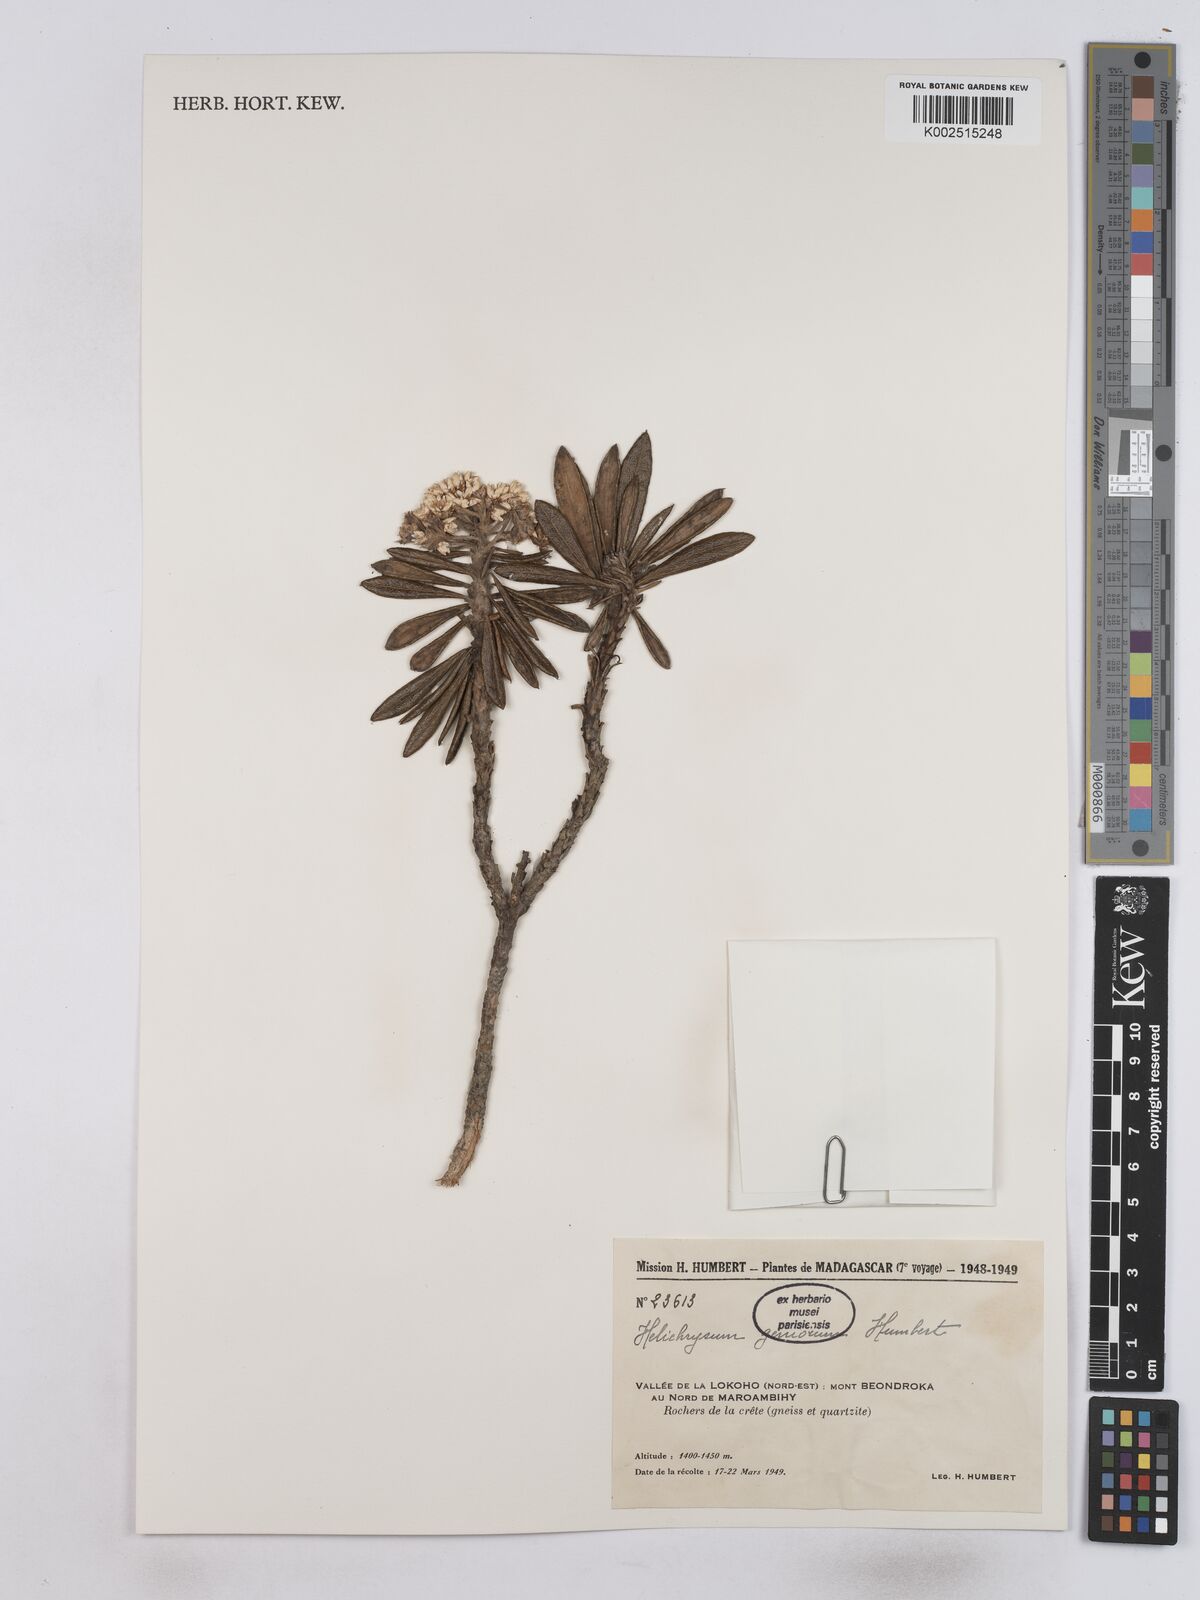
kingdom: Plantae
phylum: Tracheophyta
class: Magnoliopsida
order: Asterales
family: Asteraceae
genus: Helichrysum
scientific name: Helichrysum geniorum
